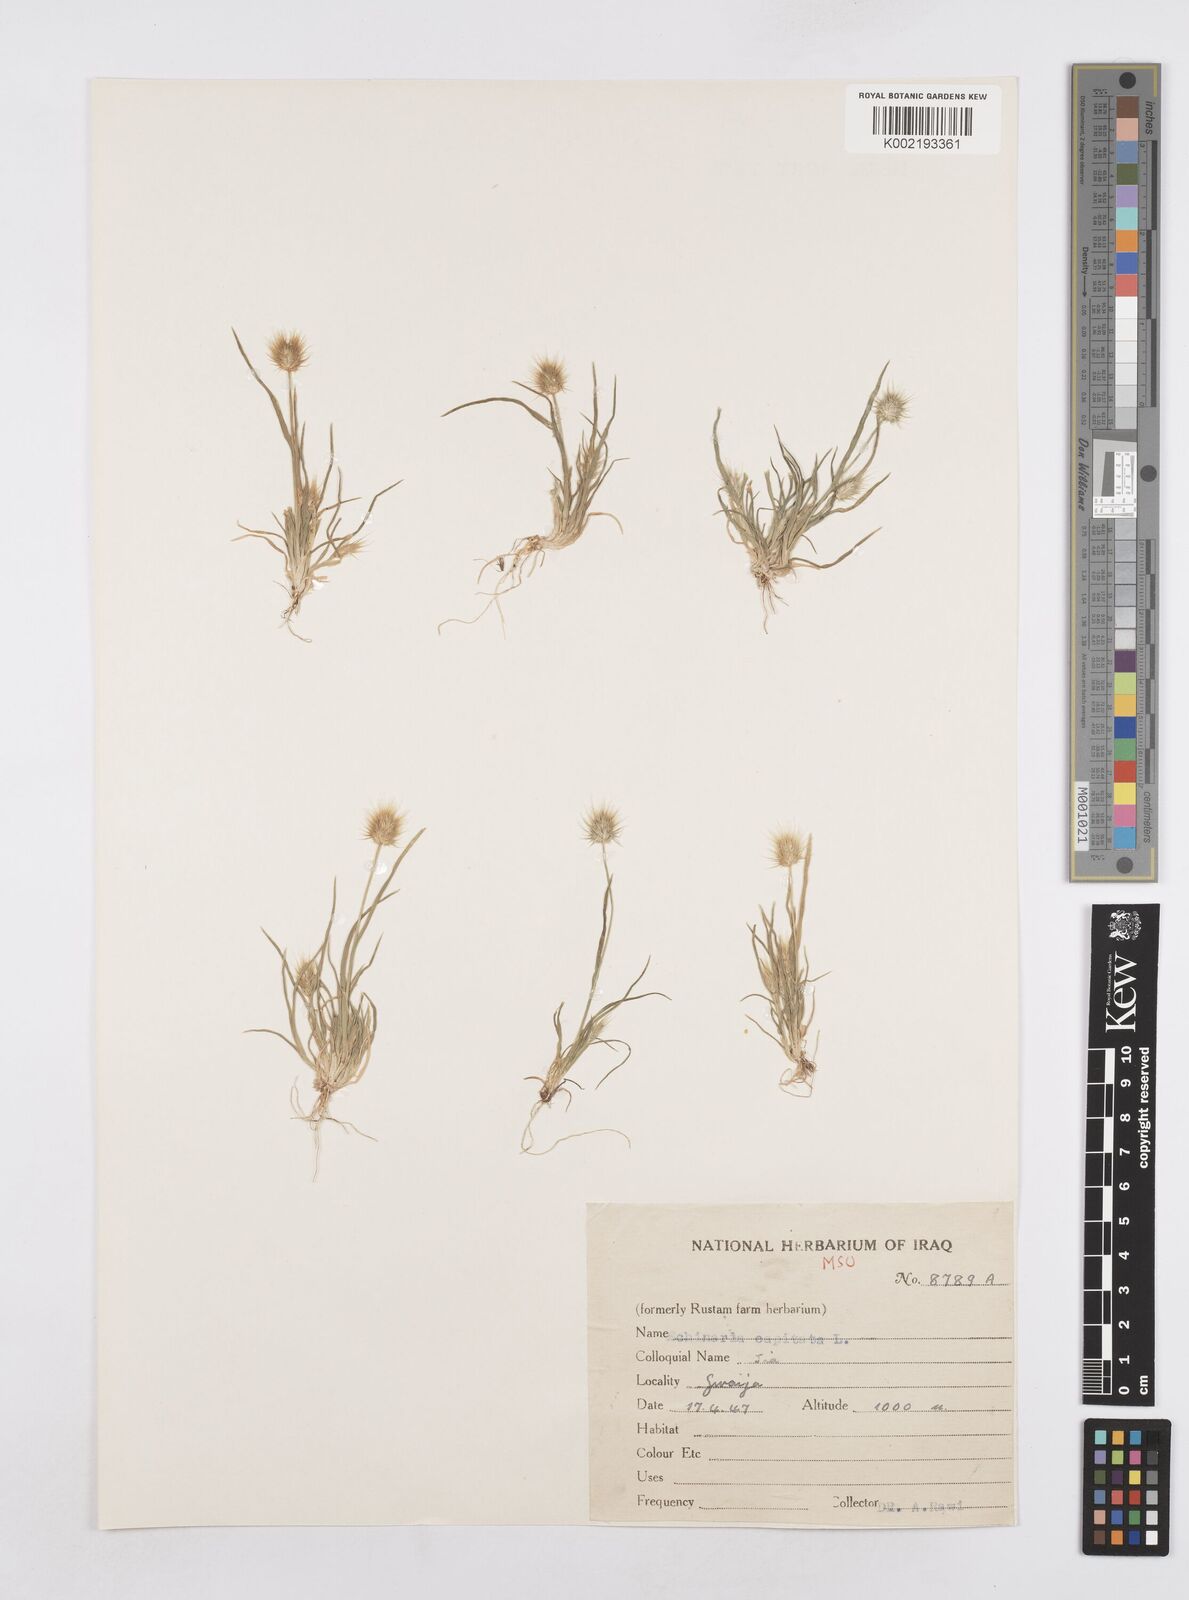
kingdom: Plantae
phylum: Tracheophyta
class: Liliopsida
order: Poales
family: Poaceae
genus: Echinaria
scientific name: Echinaria capitata
